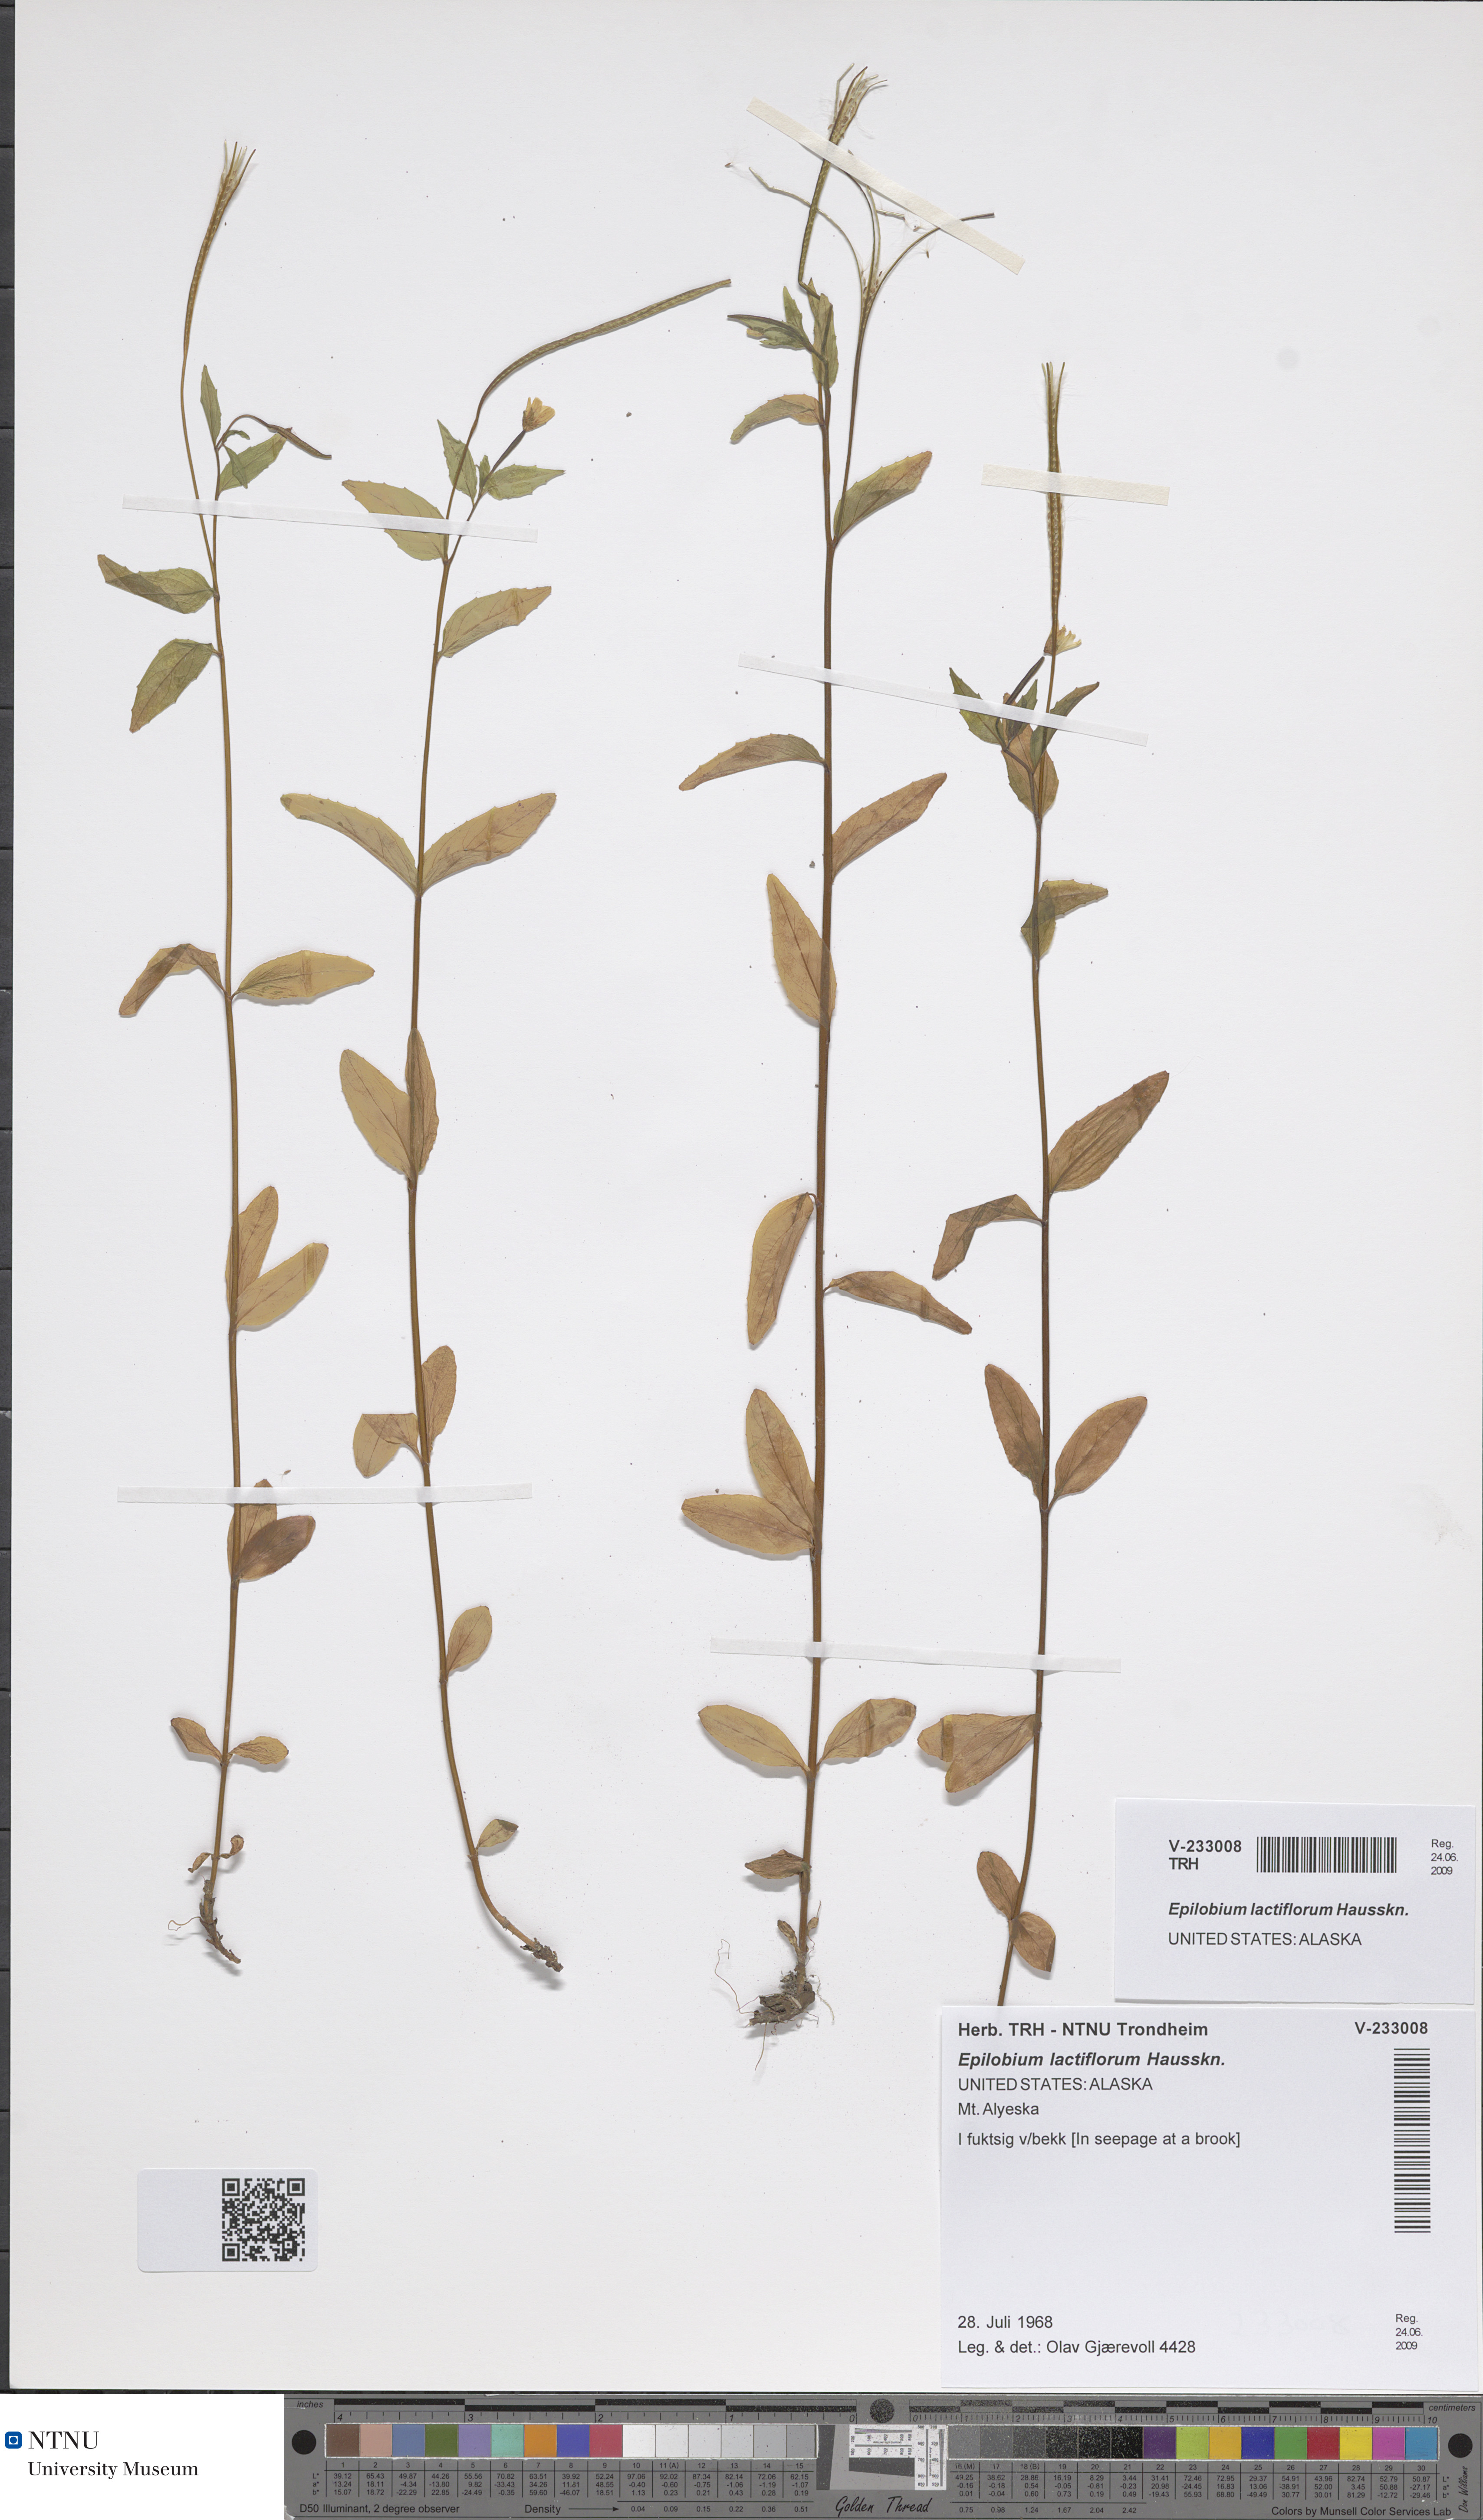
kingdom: Plantae
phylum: Tracheophyta
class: Magnoliopsida
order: Myrtales
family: Onagraceae
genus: Epilobium
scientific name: Epilobium lactiflorum
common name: Milkflower willowherb
